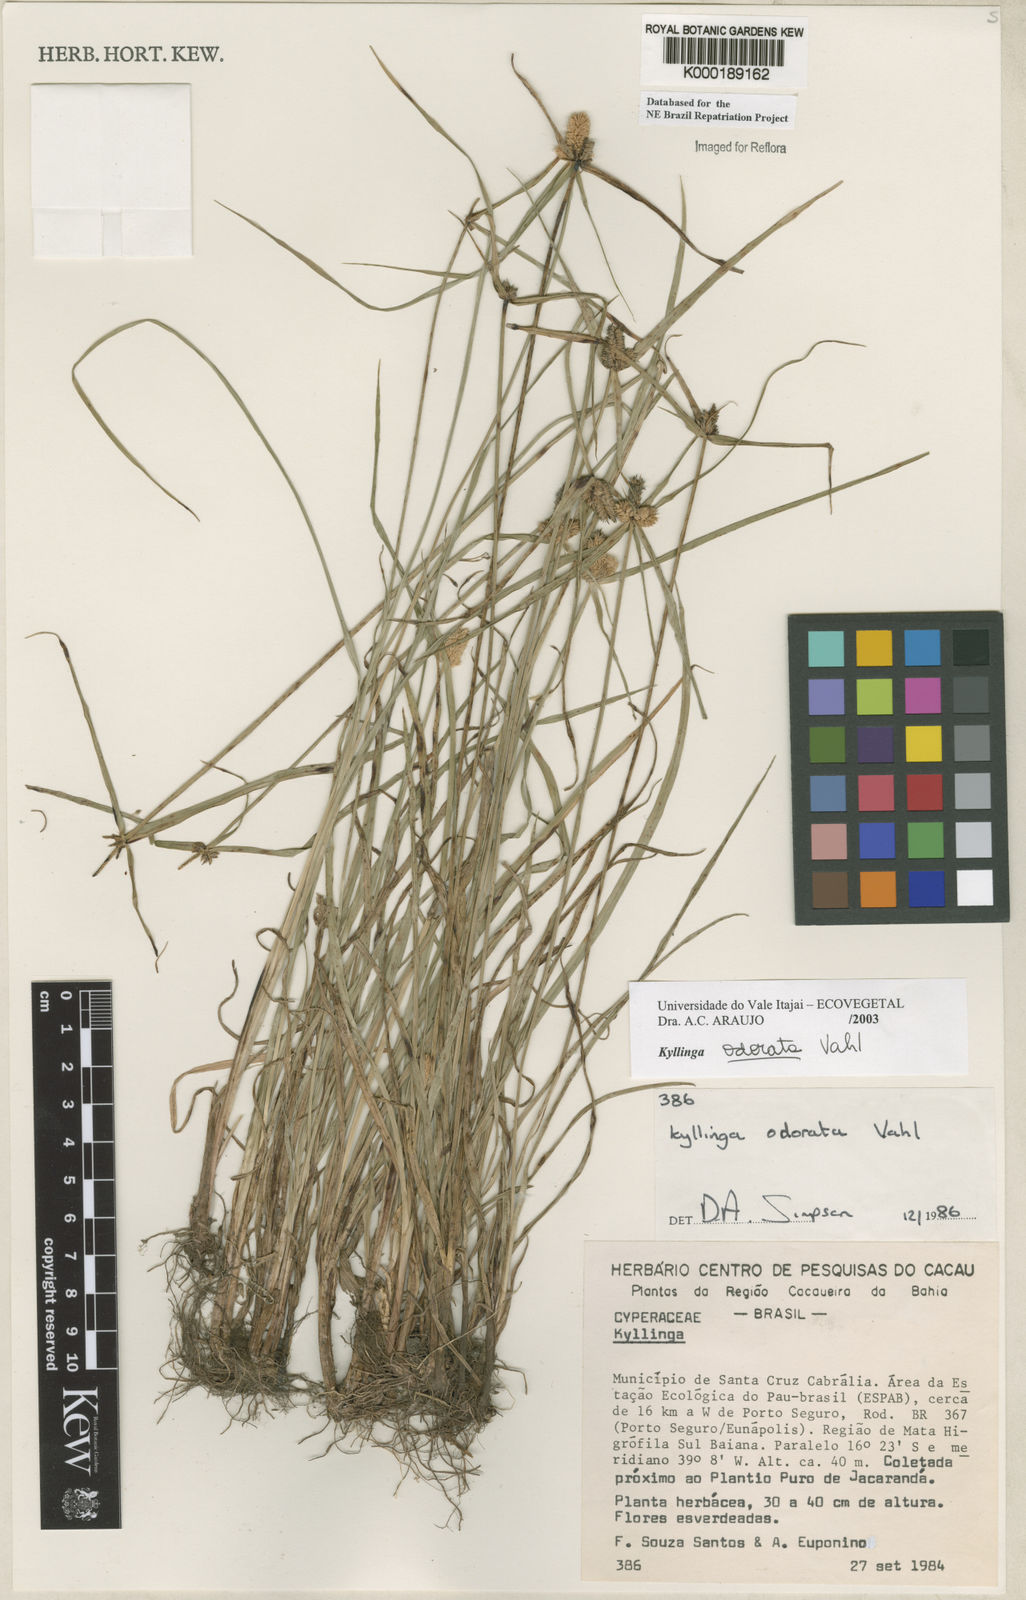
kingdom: Plantae
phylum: Tracheophyta
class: Liliopsida
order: Poales
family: Cyperaceae
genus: Cyperus
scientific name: Cyperus sesquiflorus
